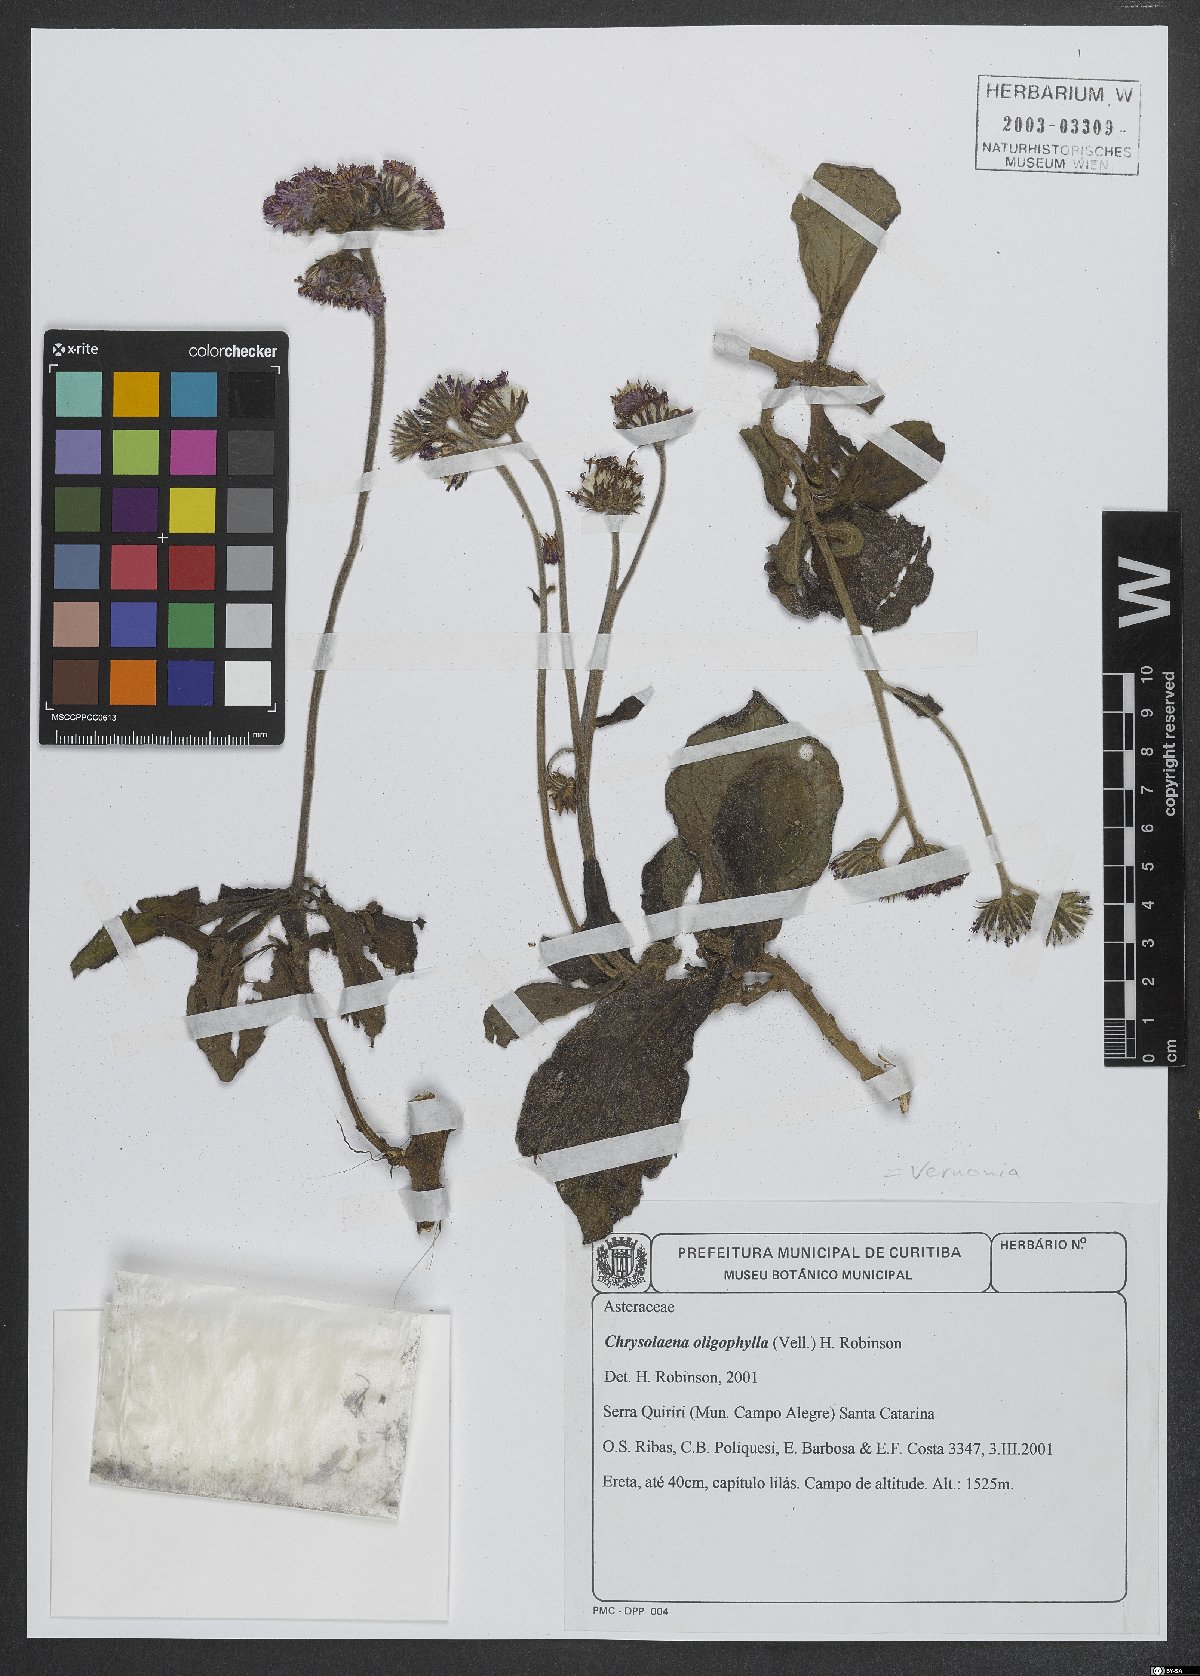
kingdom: Plantae
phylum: Tracheophyta
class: Magnoliopsida
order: Asterales
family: Asteraceae
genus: Vernonia
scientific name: Vernonia acaulis
